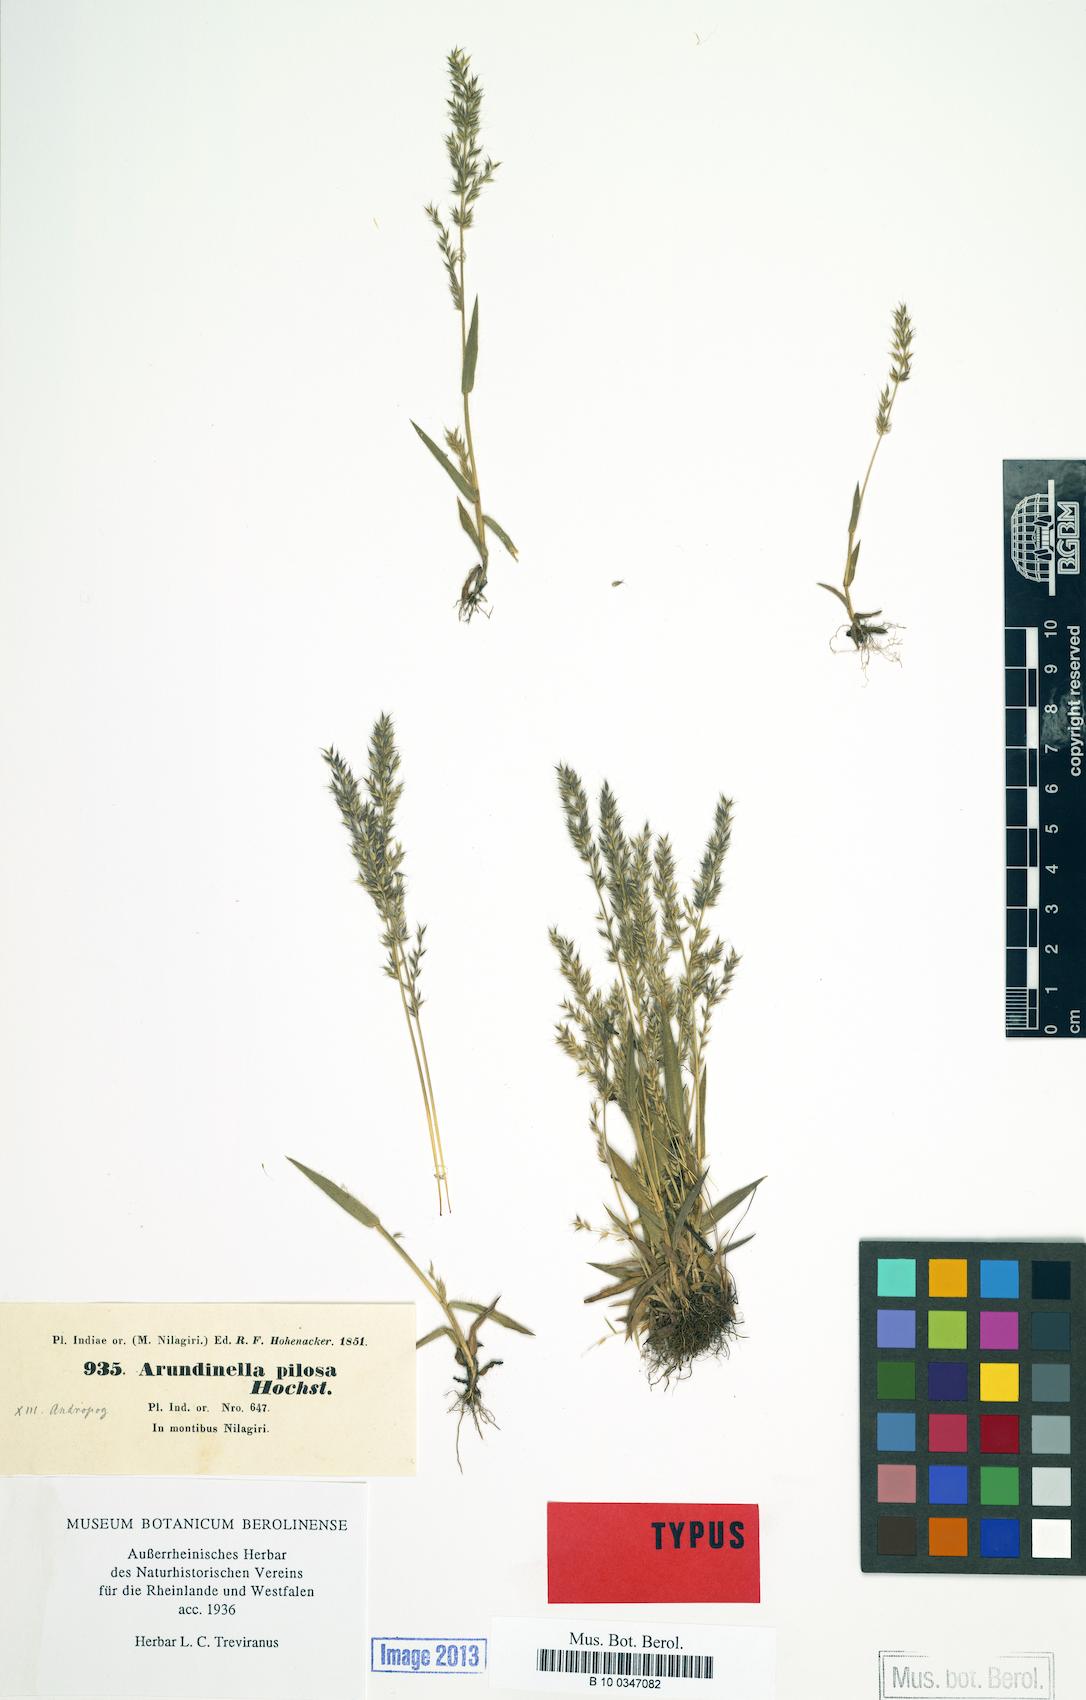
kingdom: Plantae
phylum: Tracheophyta
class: Liliopsida
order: Poales
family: Poaceae
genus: Arundinella
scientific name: Arundinella ciliata
